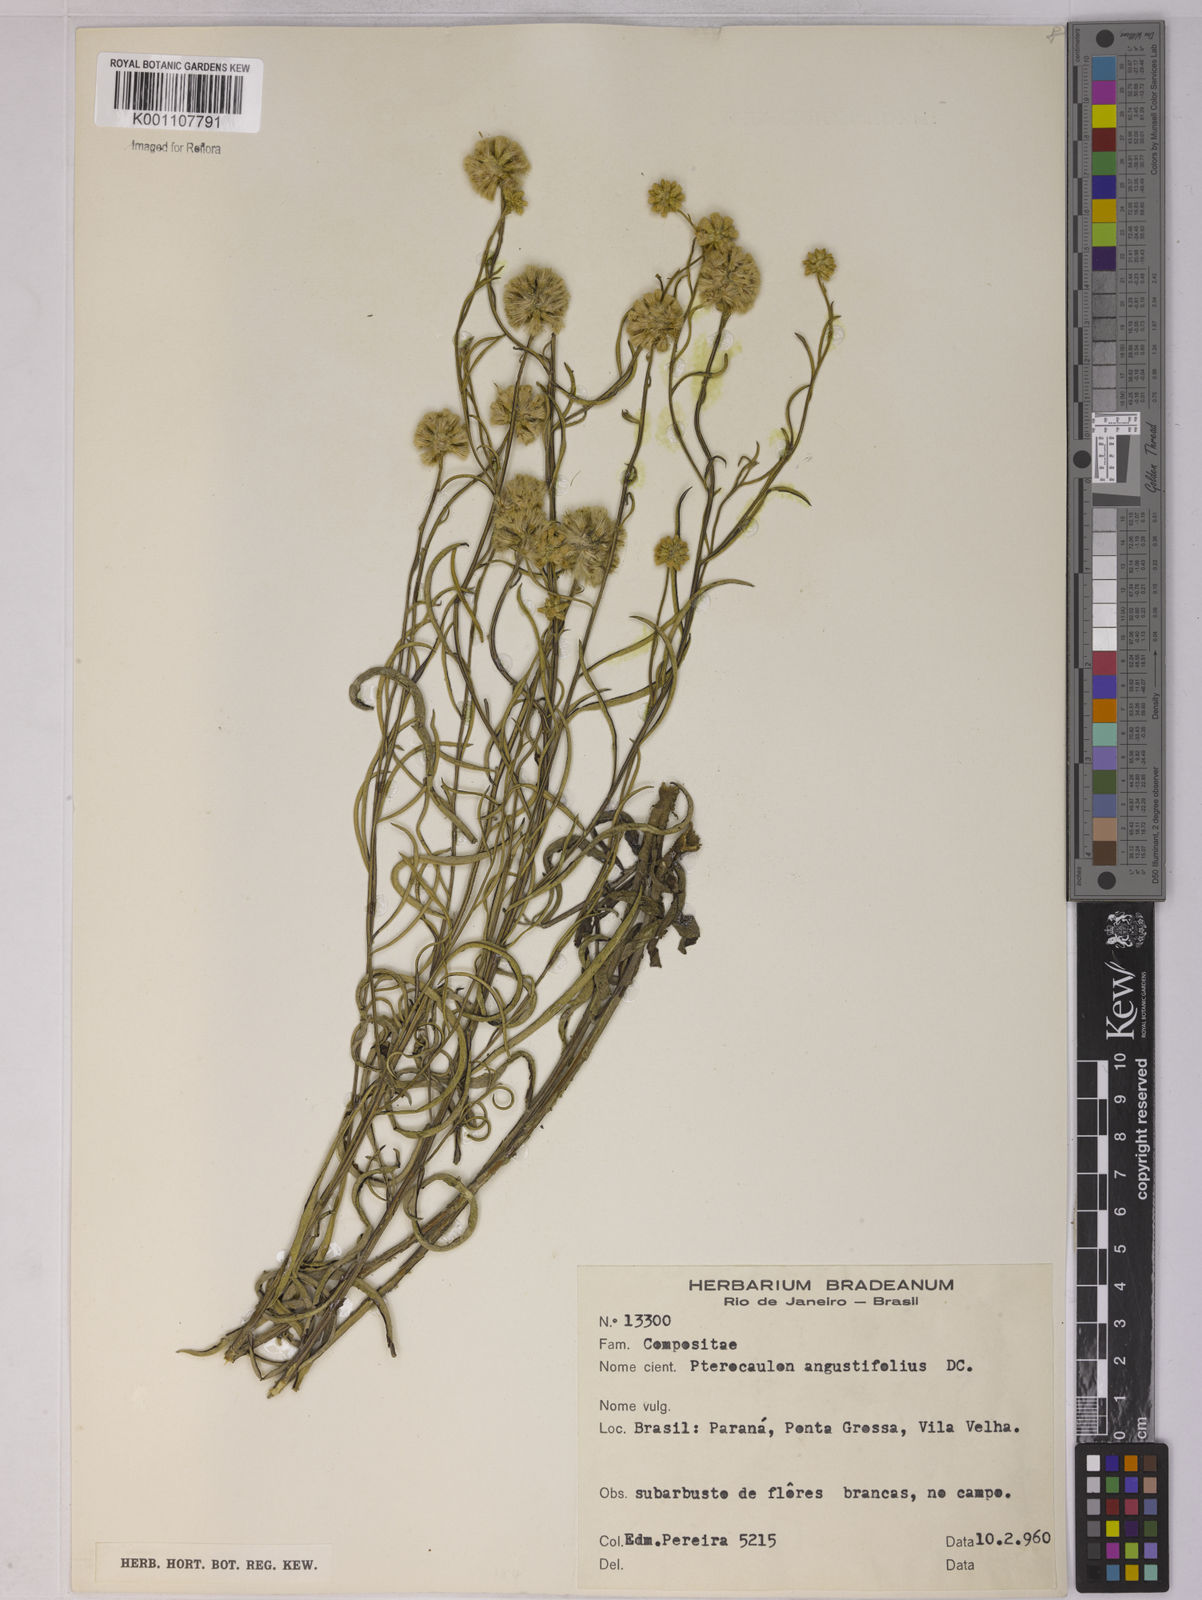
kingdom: Plantae
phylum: Tracheophyta
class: Magnoliopsida
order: Asterales
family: Asteraceae
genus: Pterocaulon
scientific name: Pterocaulon angustifolium
